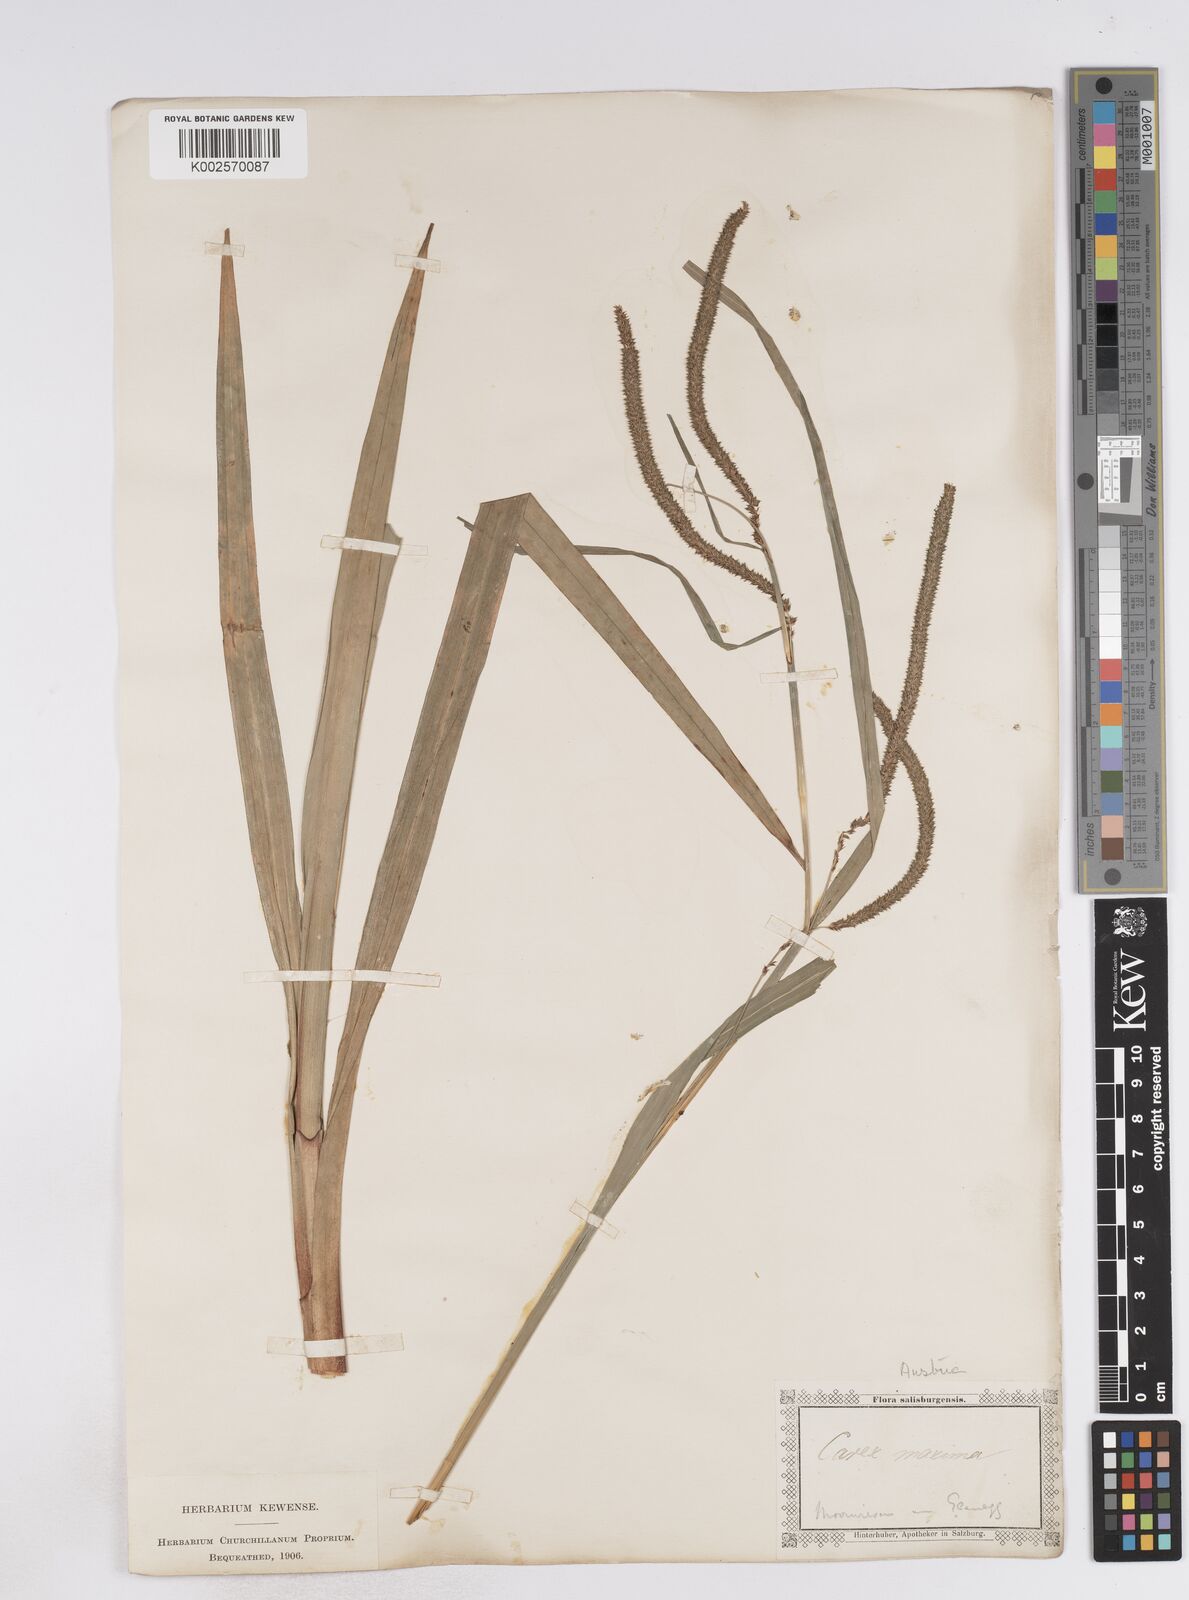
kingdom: Plantae
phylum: Tracheophyta
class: Liliopsida
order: Poales
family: Cyperaceae
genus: Carex
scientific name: Carex pendula
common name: Pendulous sedge
